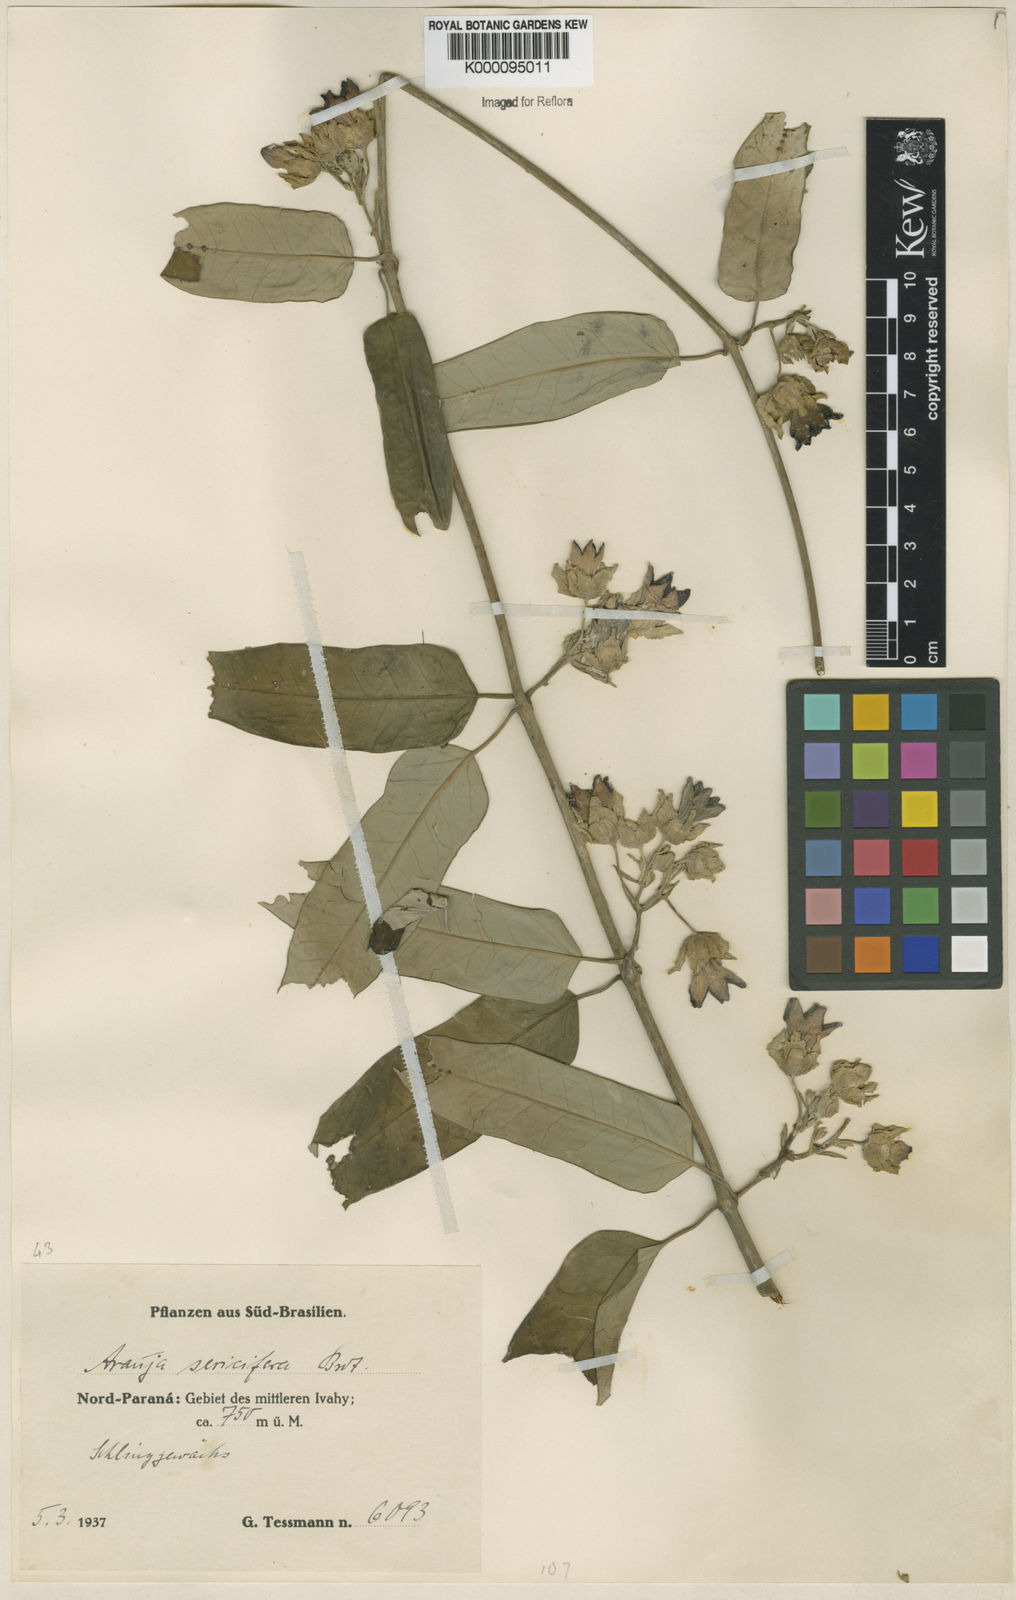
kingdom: Plantae
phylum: Tracheophyta
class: Magnoliopsida
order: Gentianales
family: Apocynaceae
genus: Araujia
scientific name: Araujia sericifera
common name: White bladderflower
